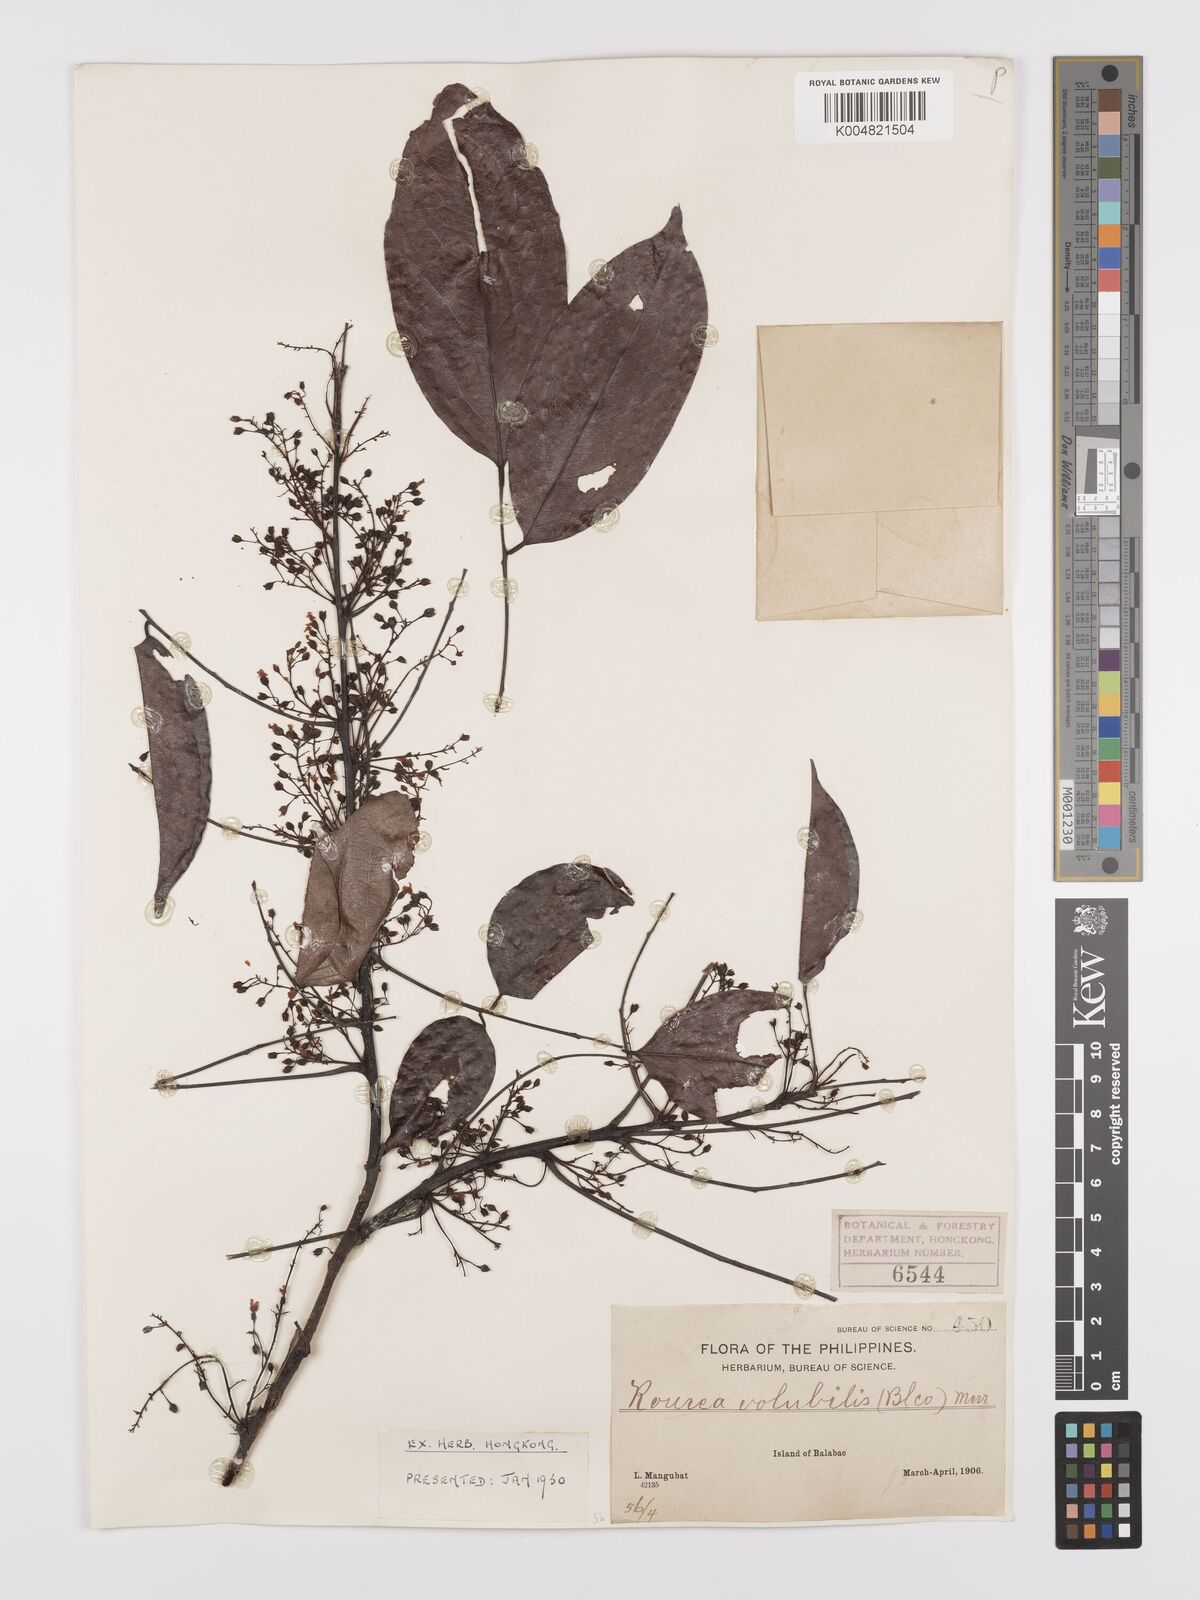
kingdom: Plantae
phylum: Tracheophyta
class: Magnoliopsida
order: Oxalidales
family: Connaraceae
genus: Rourea
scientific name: Rourea minor
